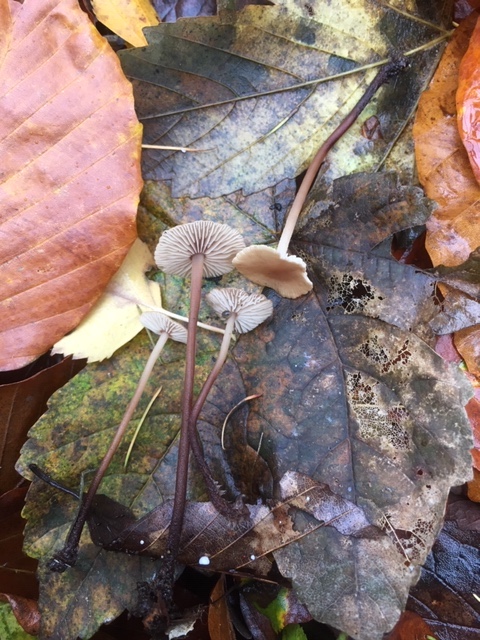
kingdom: Fungi
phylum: Basidiomycota
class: Agaricomycetes
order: Agaricales
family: Omphalotaceae
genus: Mycetinis
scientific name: Mycetinis querceus
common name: ege-løghat
